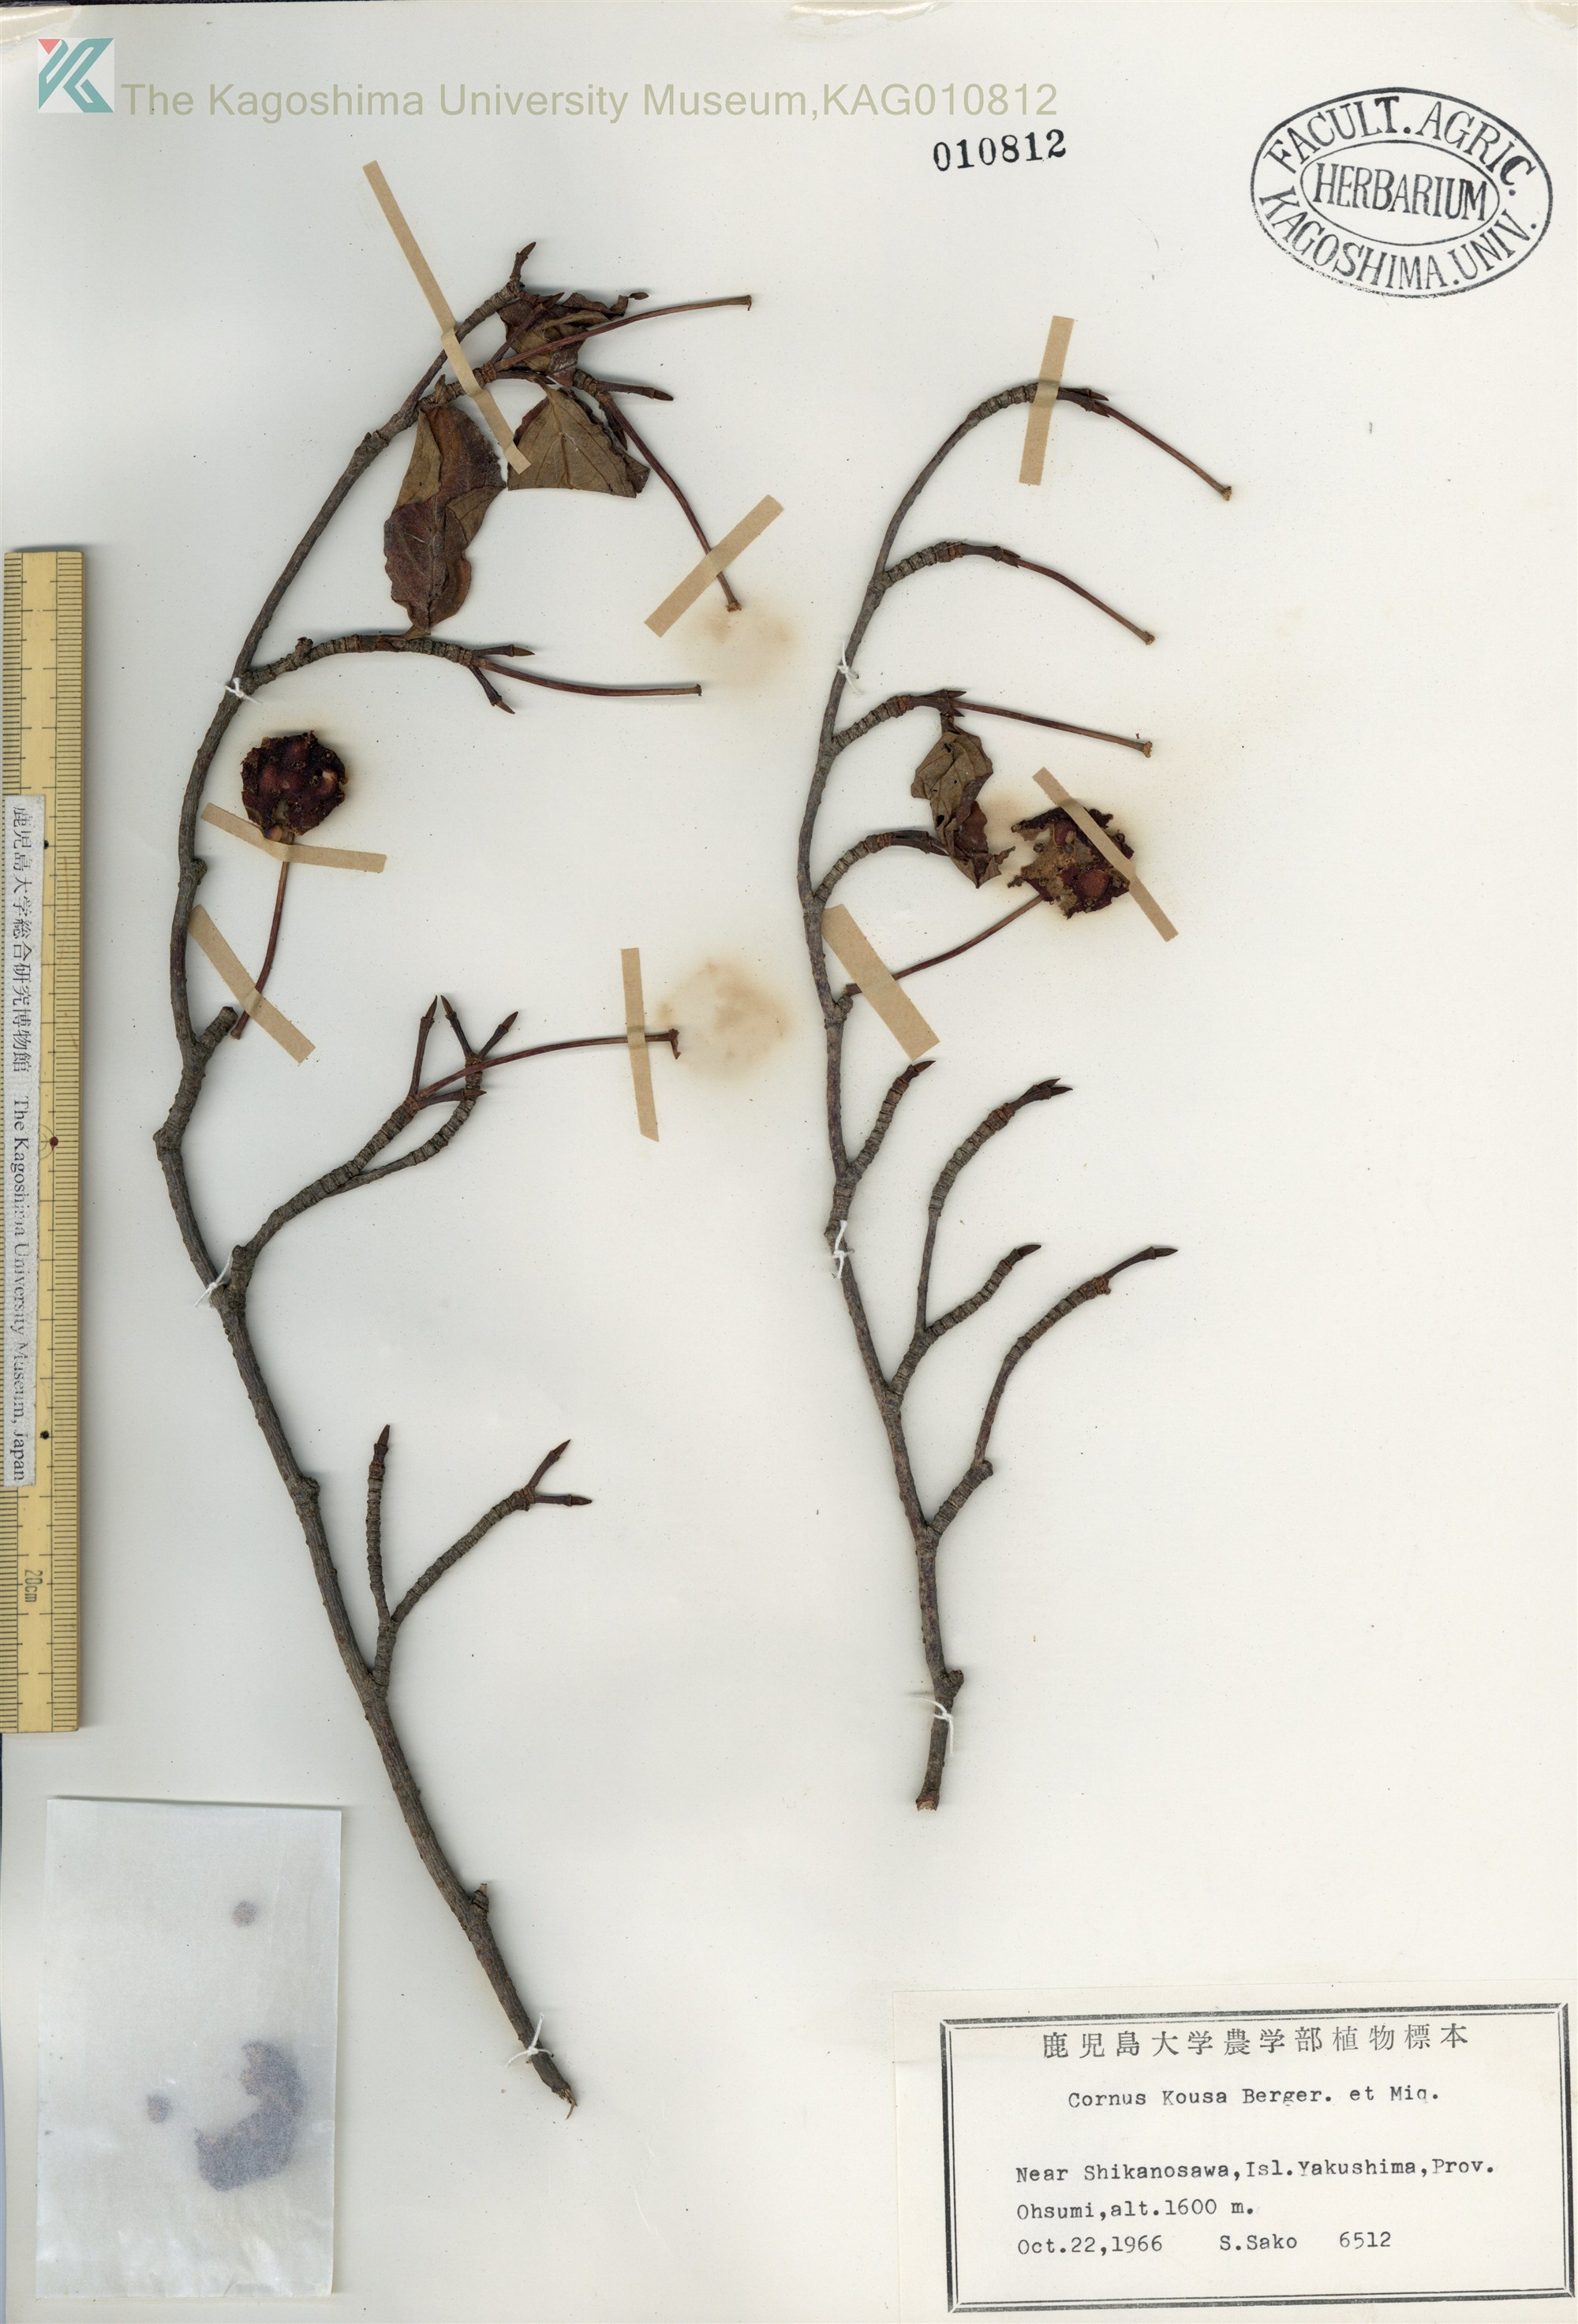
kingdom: Plantae
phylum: Tracheophyta
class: Magnoliopsida
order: Cornales
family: Cornaceae
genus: Cornus
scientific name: Cornus kousa
